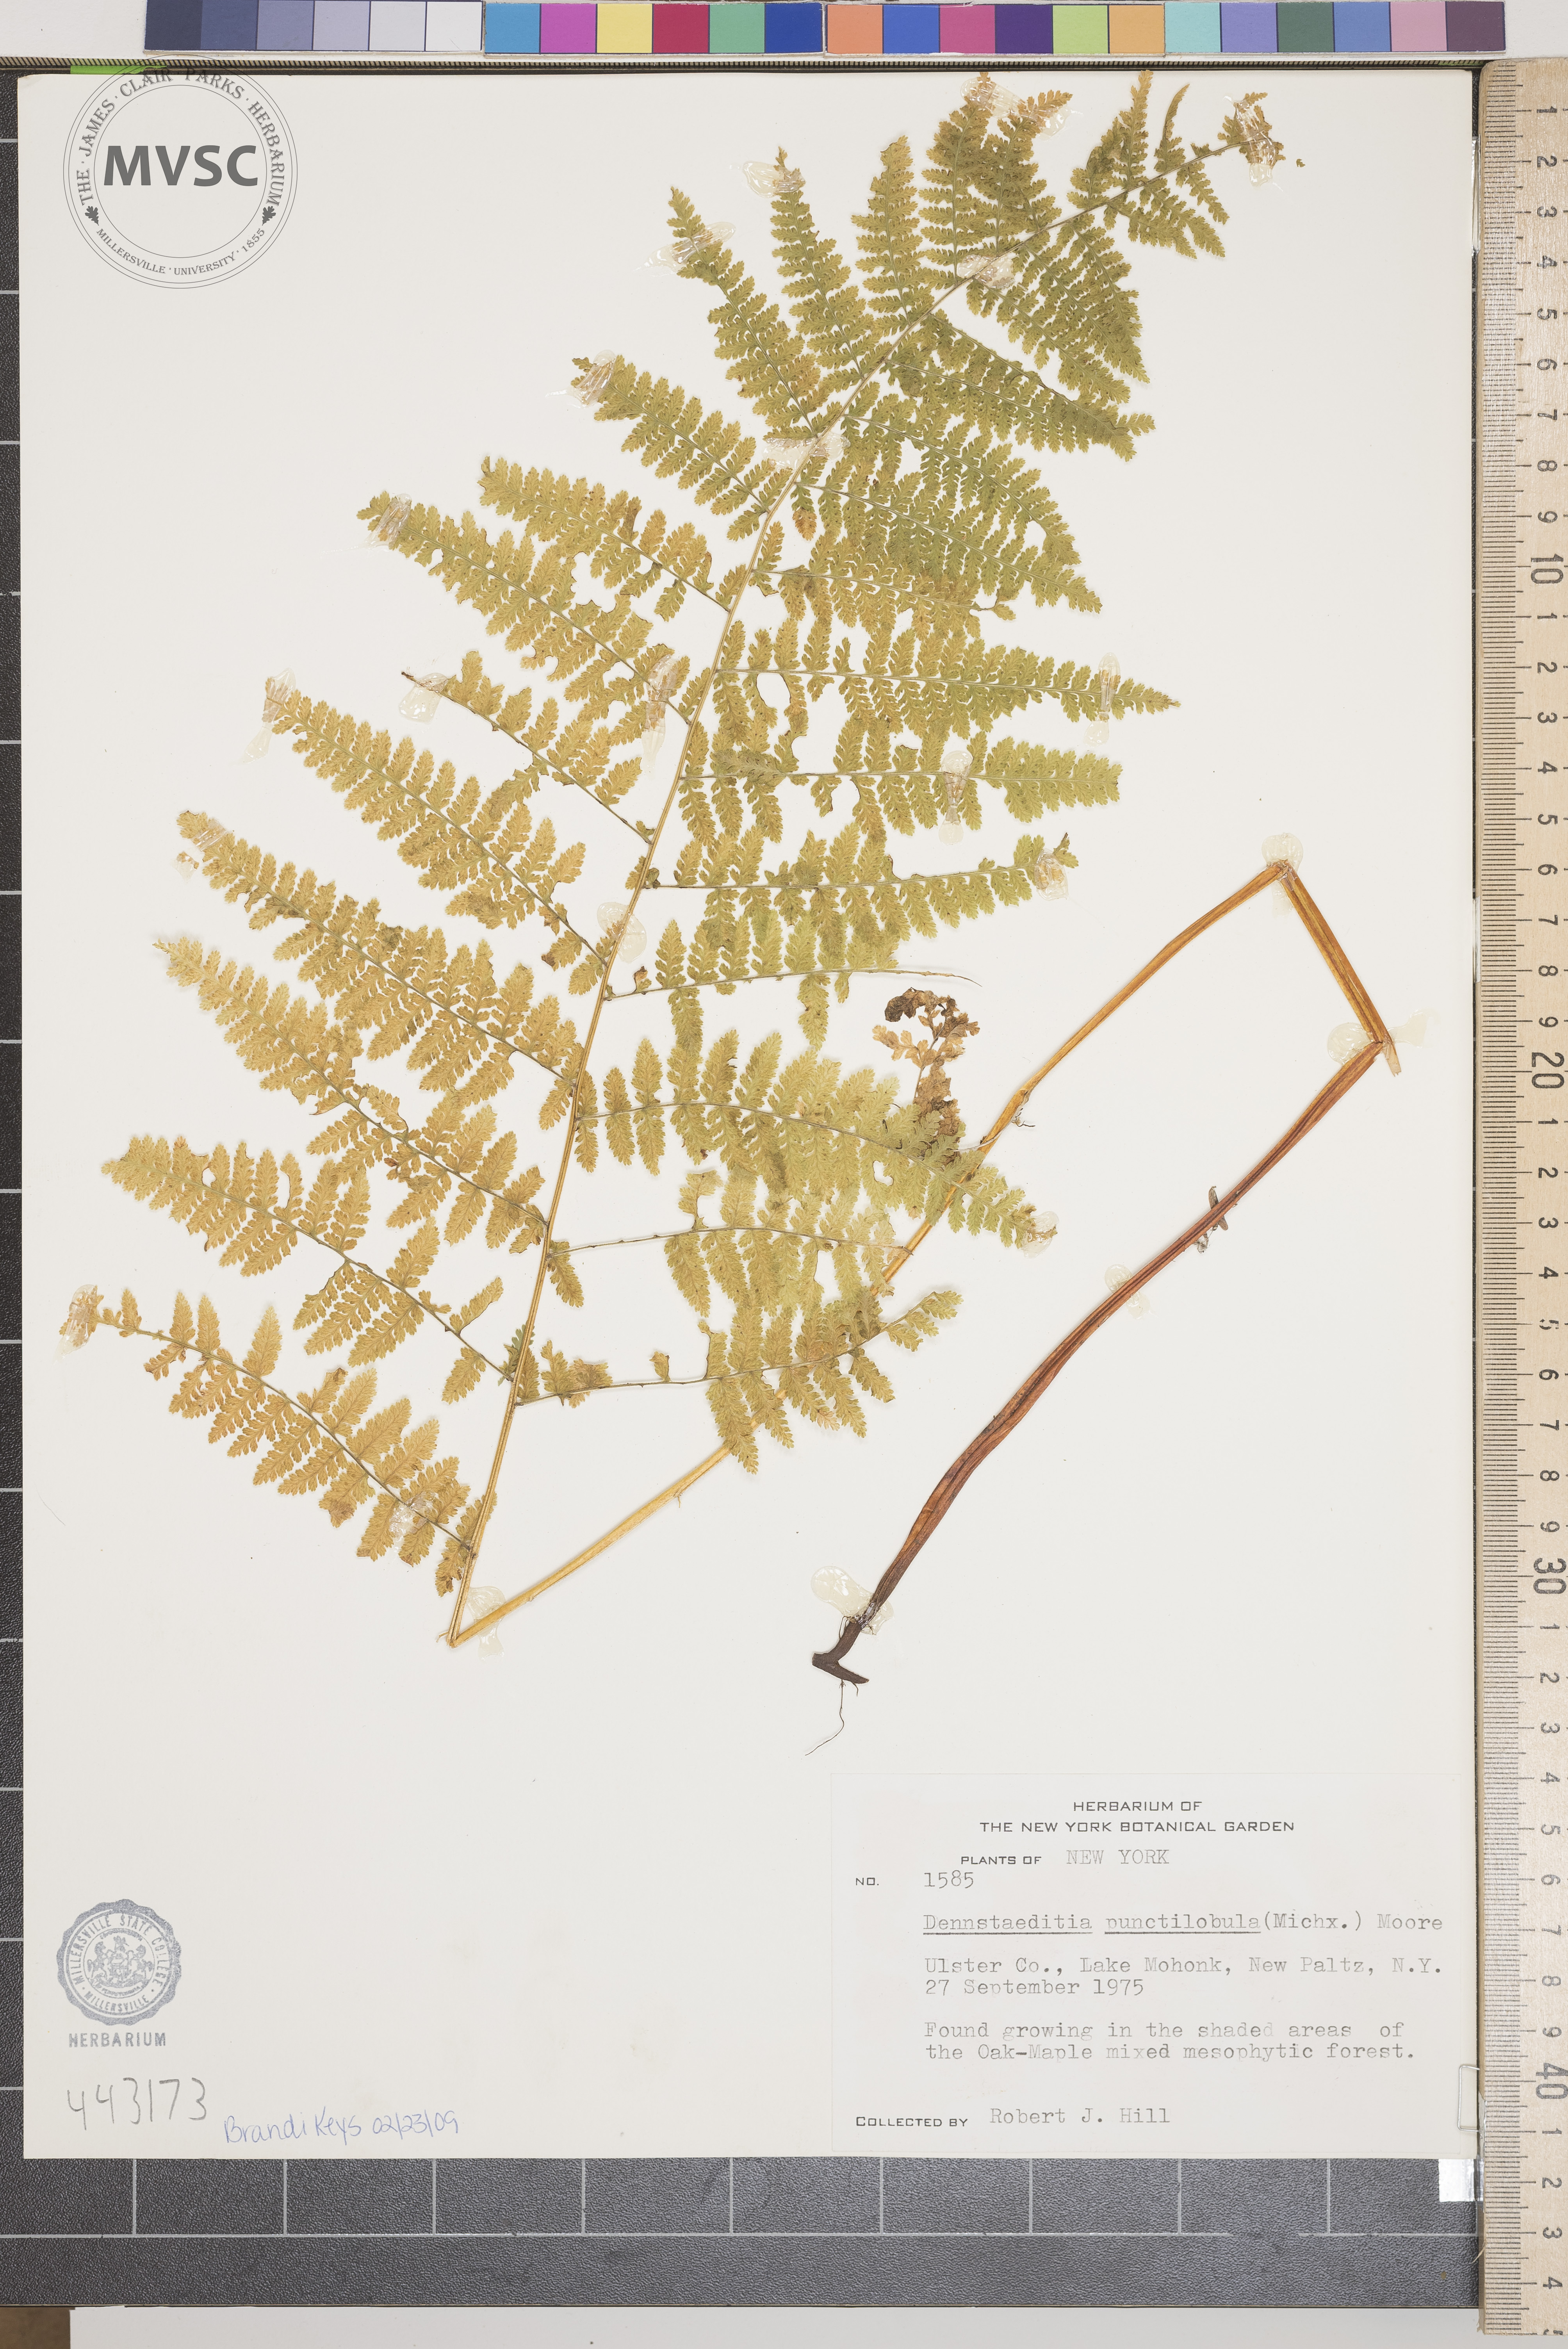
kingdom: Plantae
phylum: Tracheophyta
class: Polypodiopsida
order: Polypodiales
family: Dennstaedtiaceae
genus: Sitobolium
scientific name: Sitobolium punctilobum
